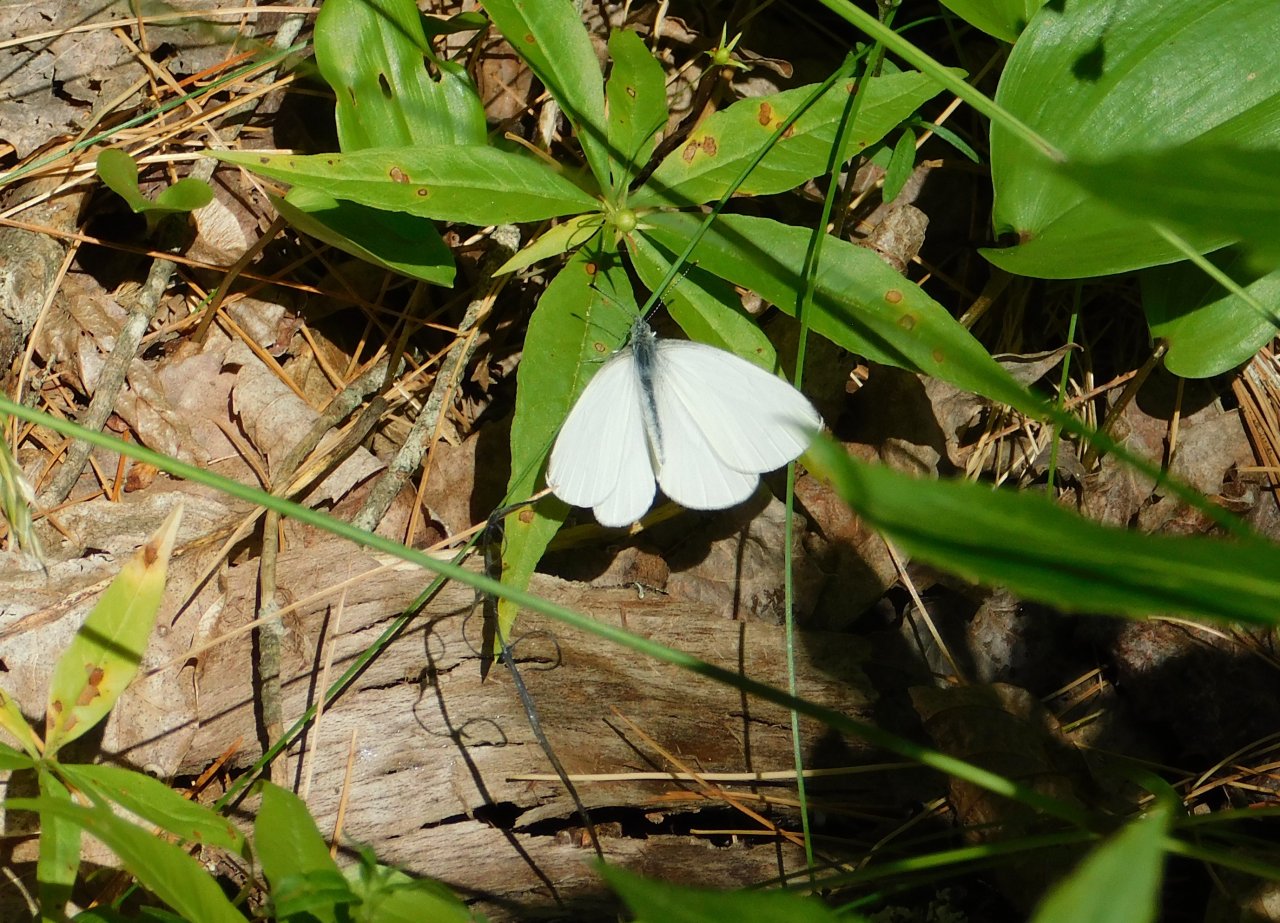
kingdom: Animalia
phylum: Arthropoda
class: Insecta
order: Lepidoptera
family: Pieridae
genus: Pieris
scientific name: Pieris oleracea
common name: Mustard White
